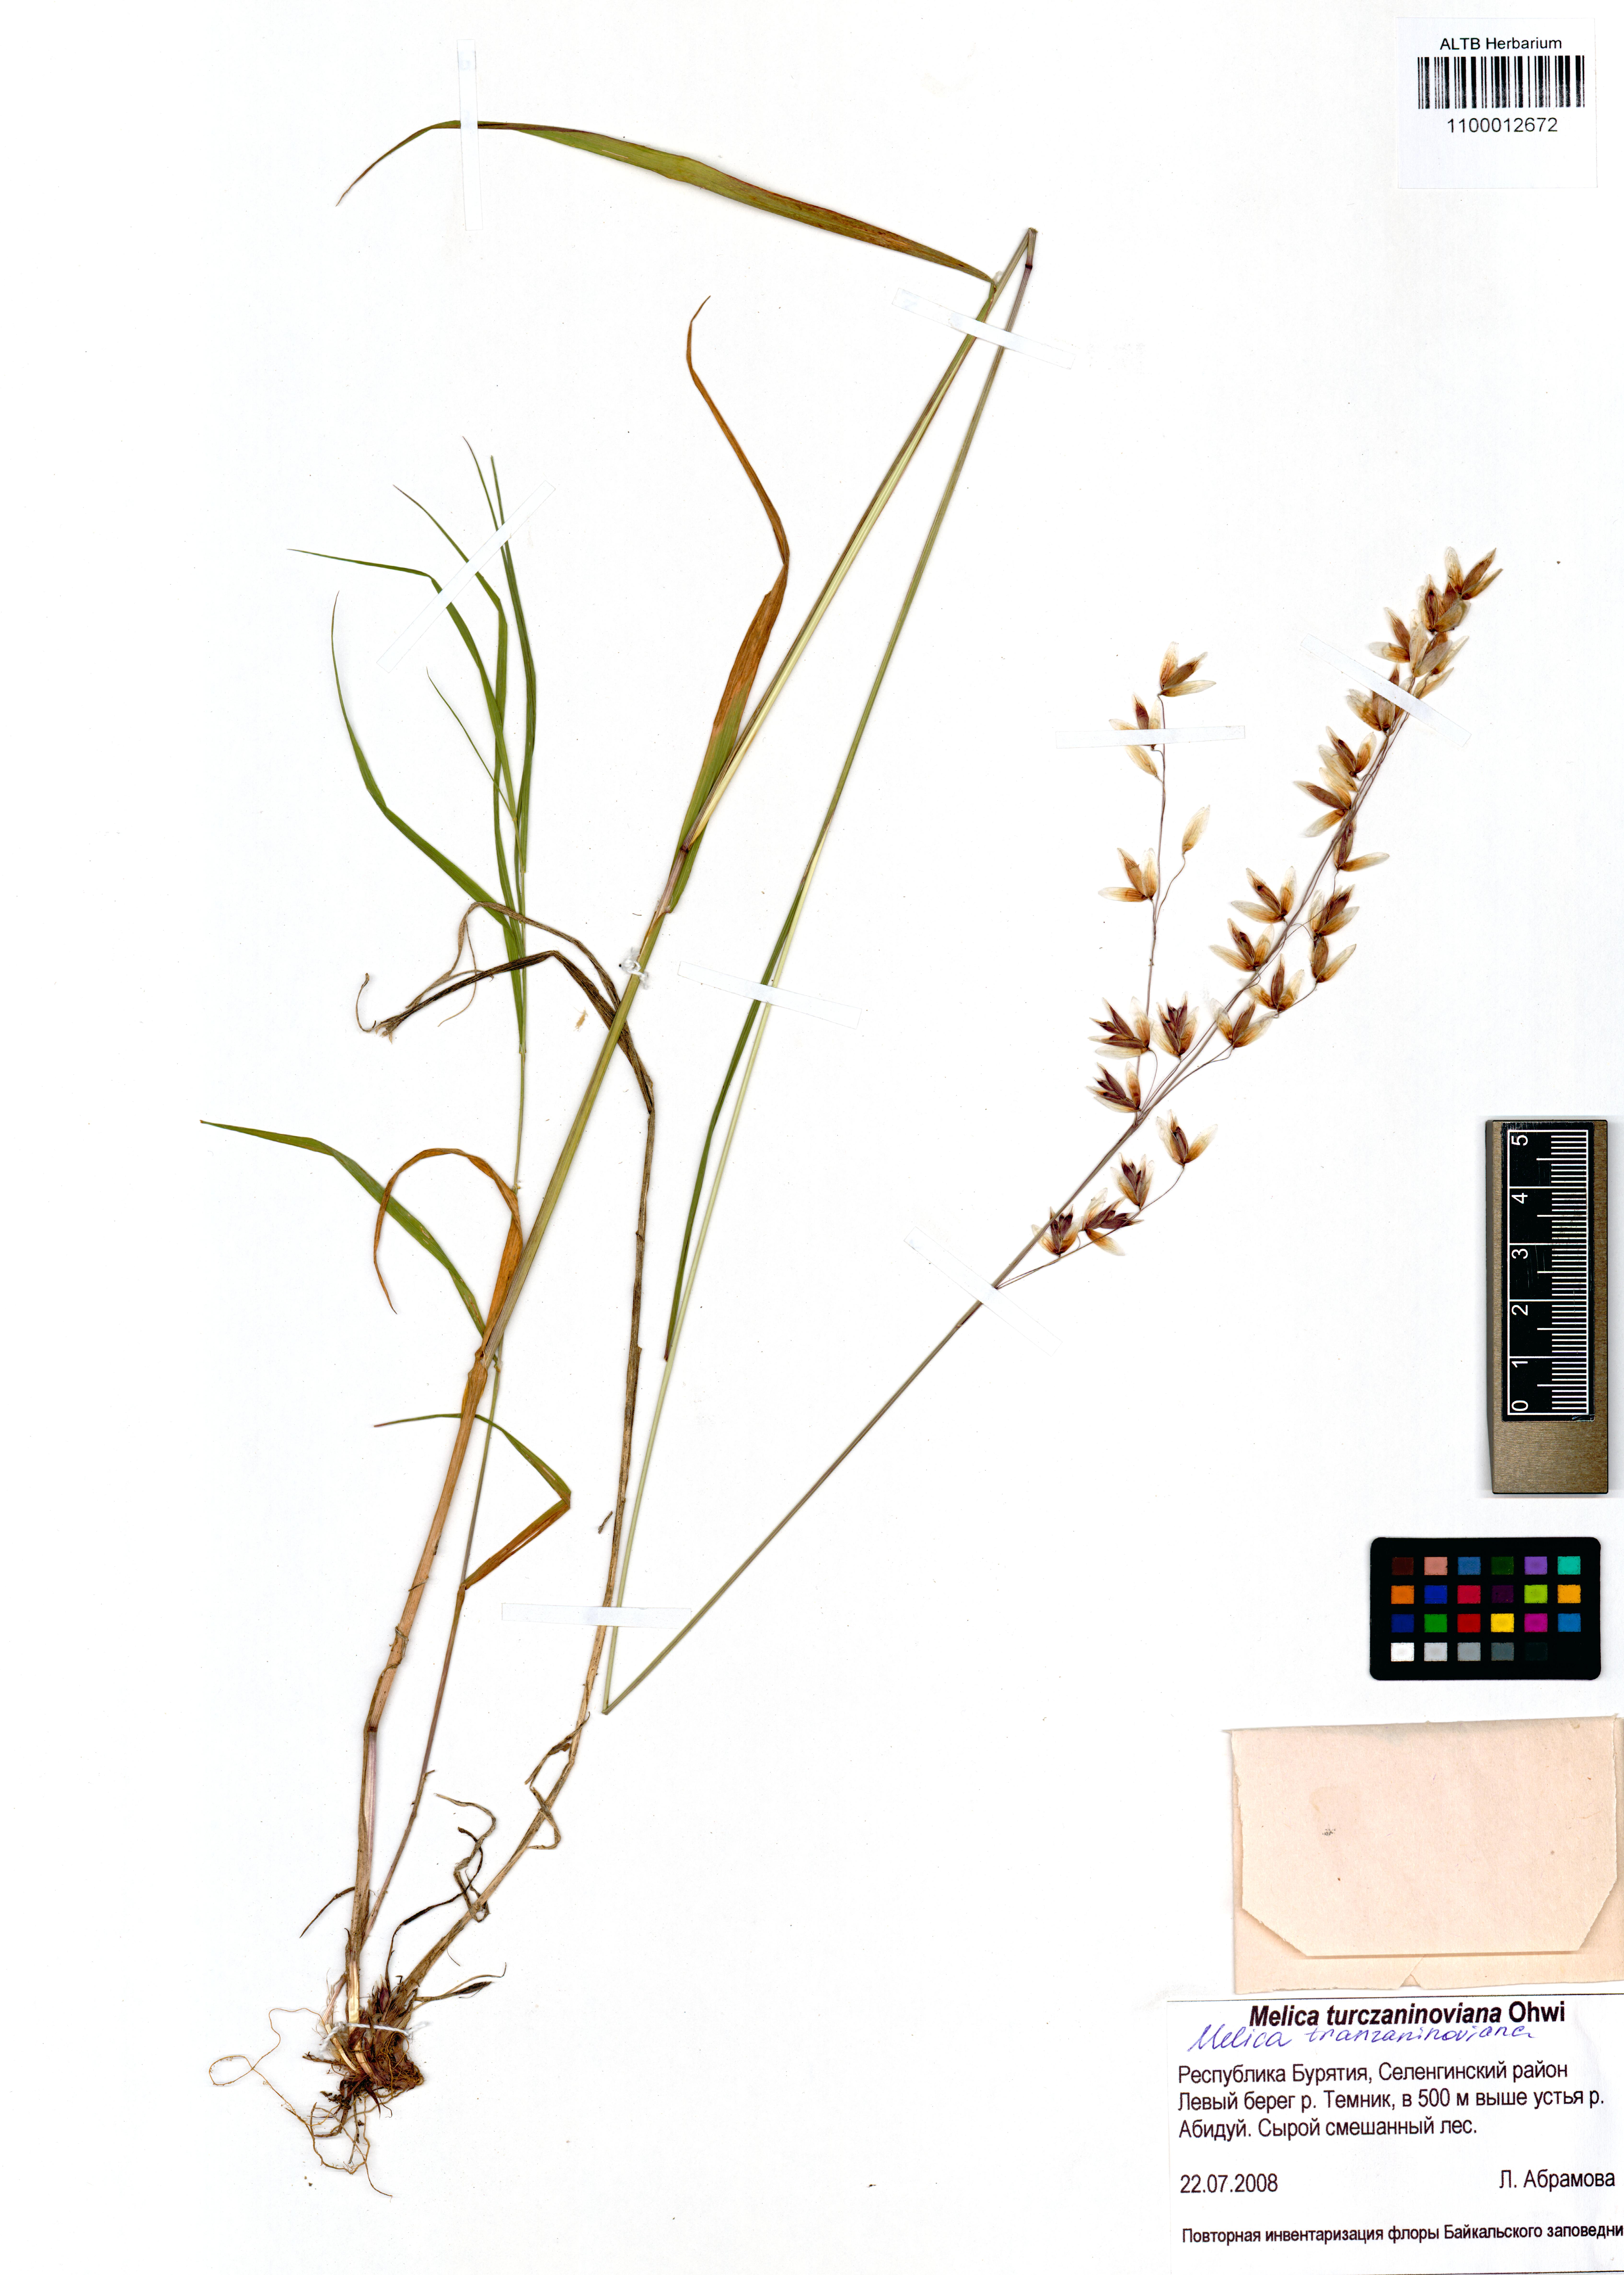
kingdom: Plantae
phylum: Tracheophyta
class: Liliopsida
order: Poales
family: Poaceae
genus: Melica
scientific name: Melica turczaninowiana
